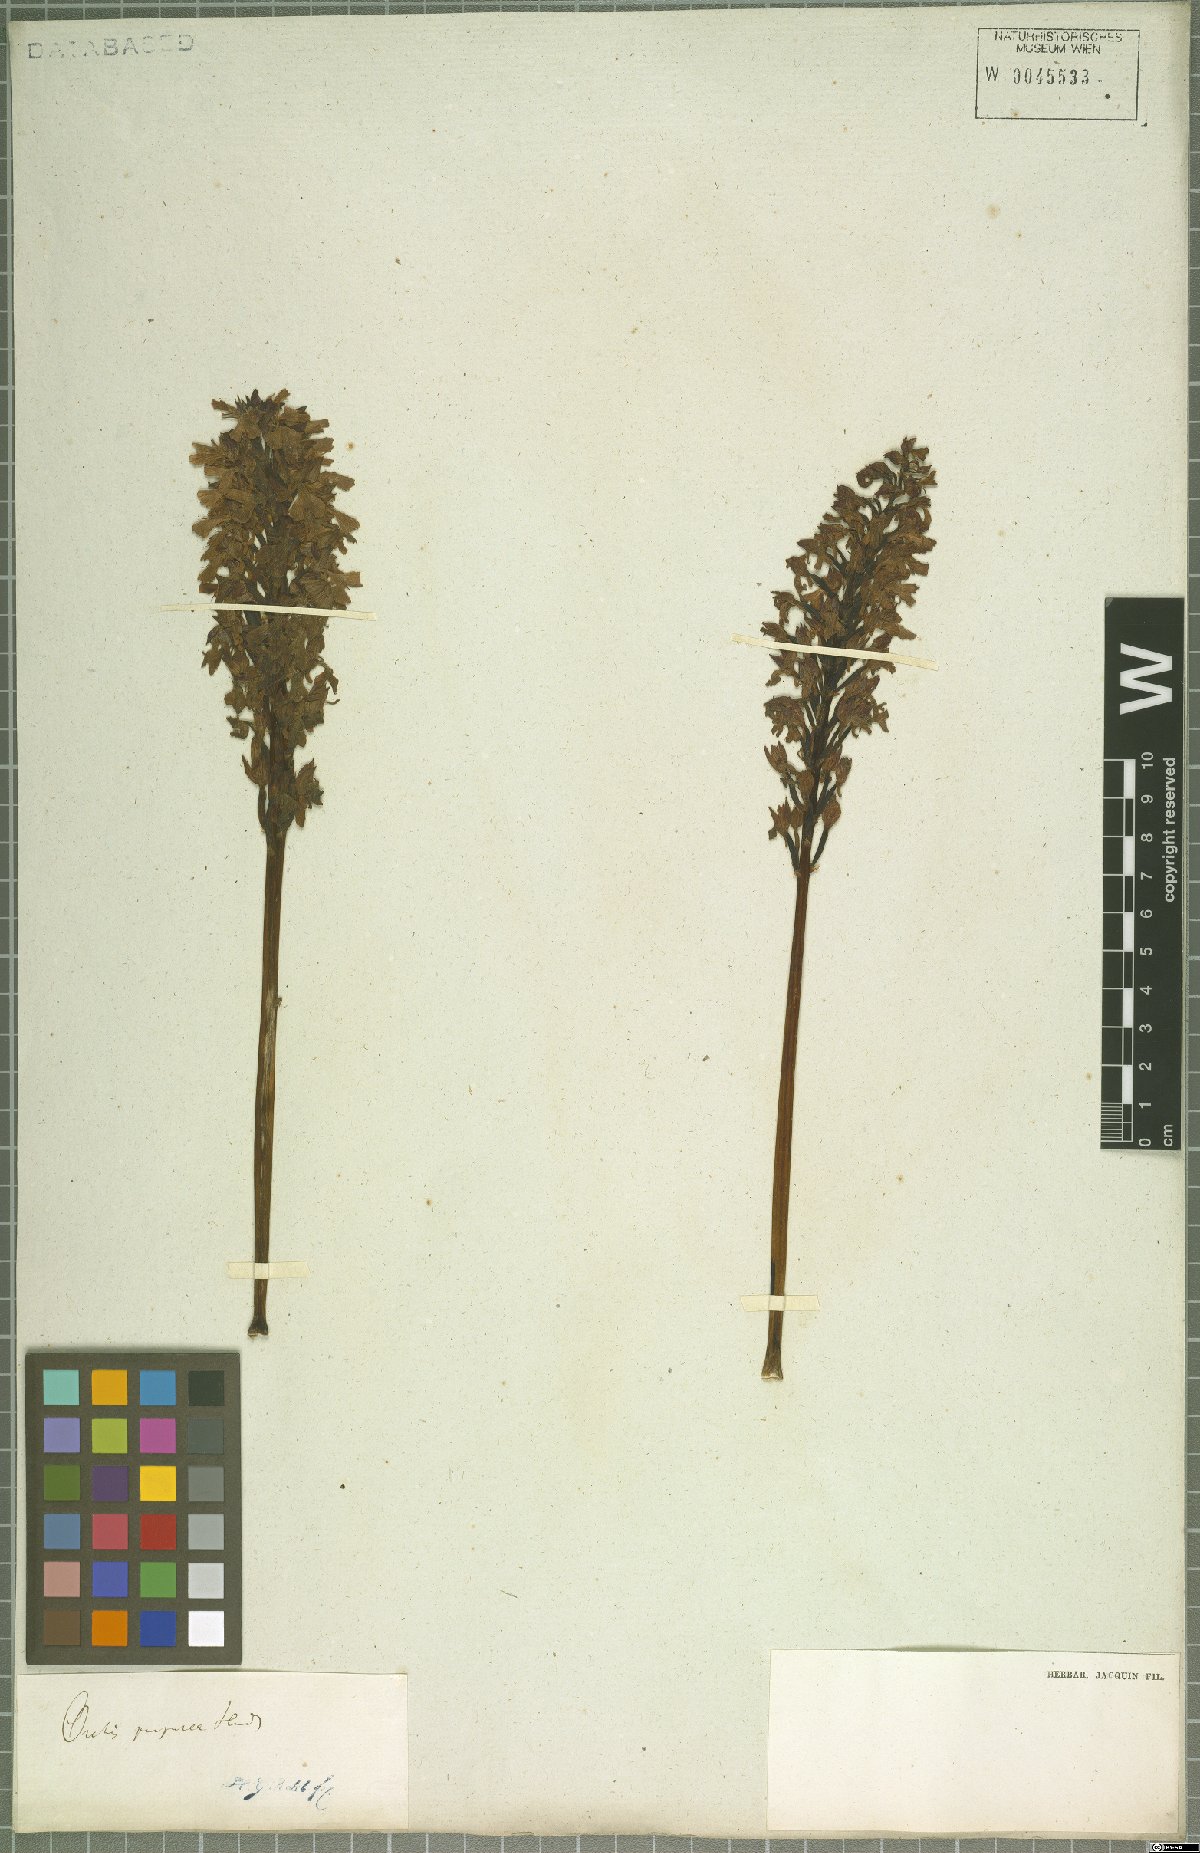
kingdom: Plantae
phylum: Tracheophyta
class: Liliopsida
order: Asparagales
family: Orchidaceae
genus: Orchis
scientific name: Orchis purpurea
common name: Lady orchid
